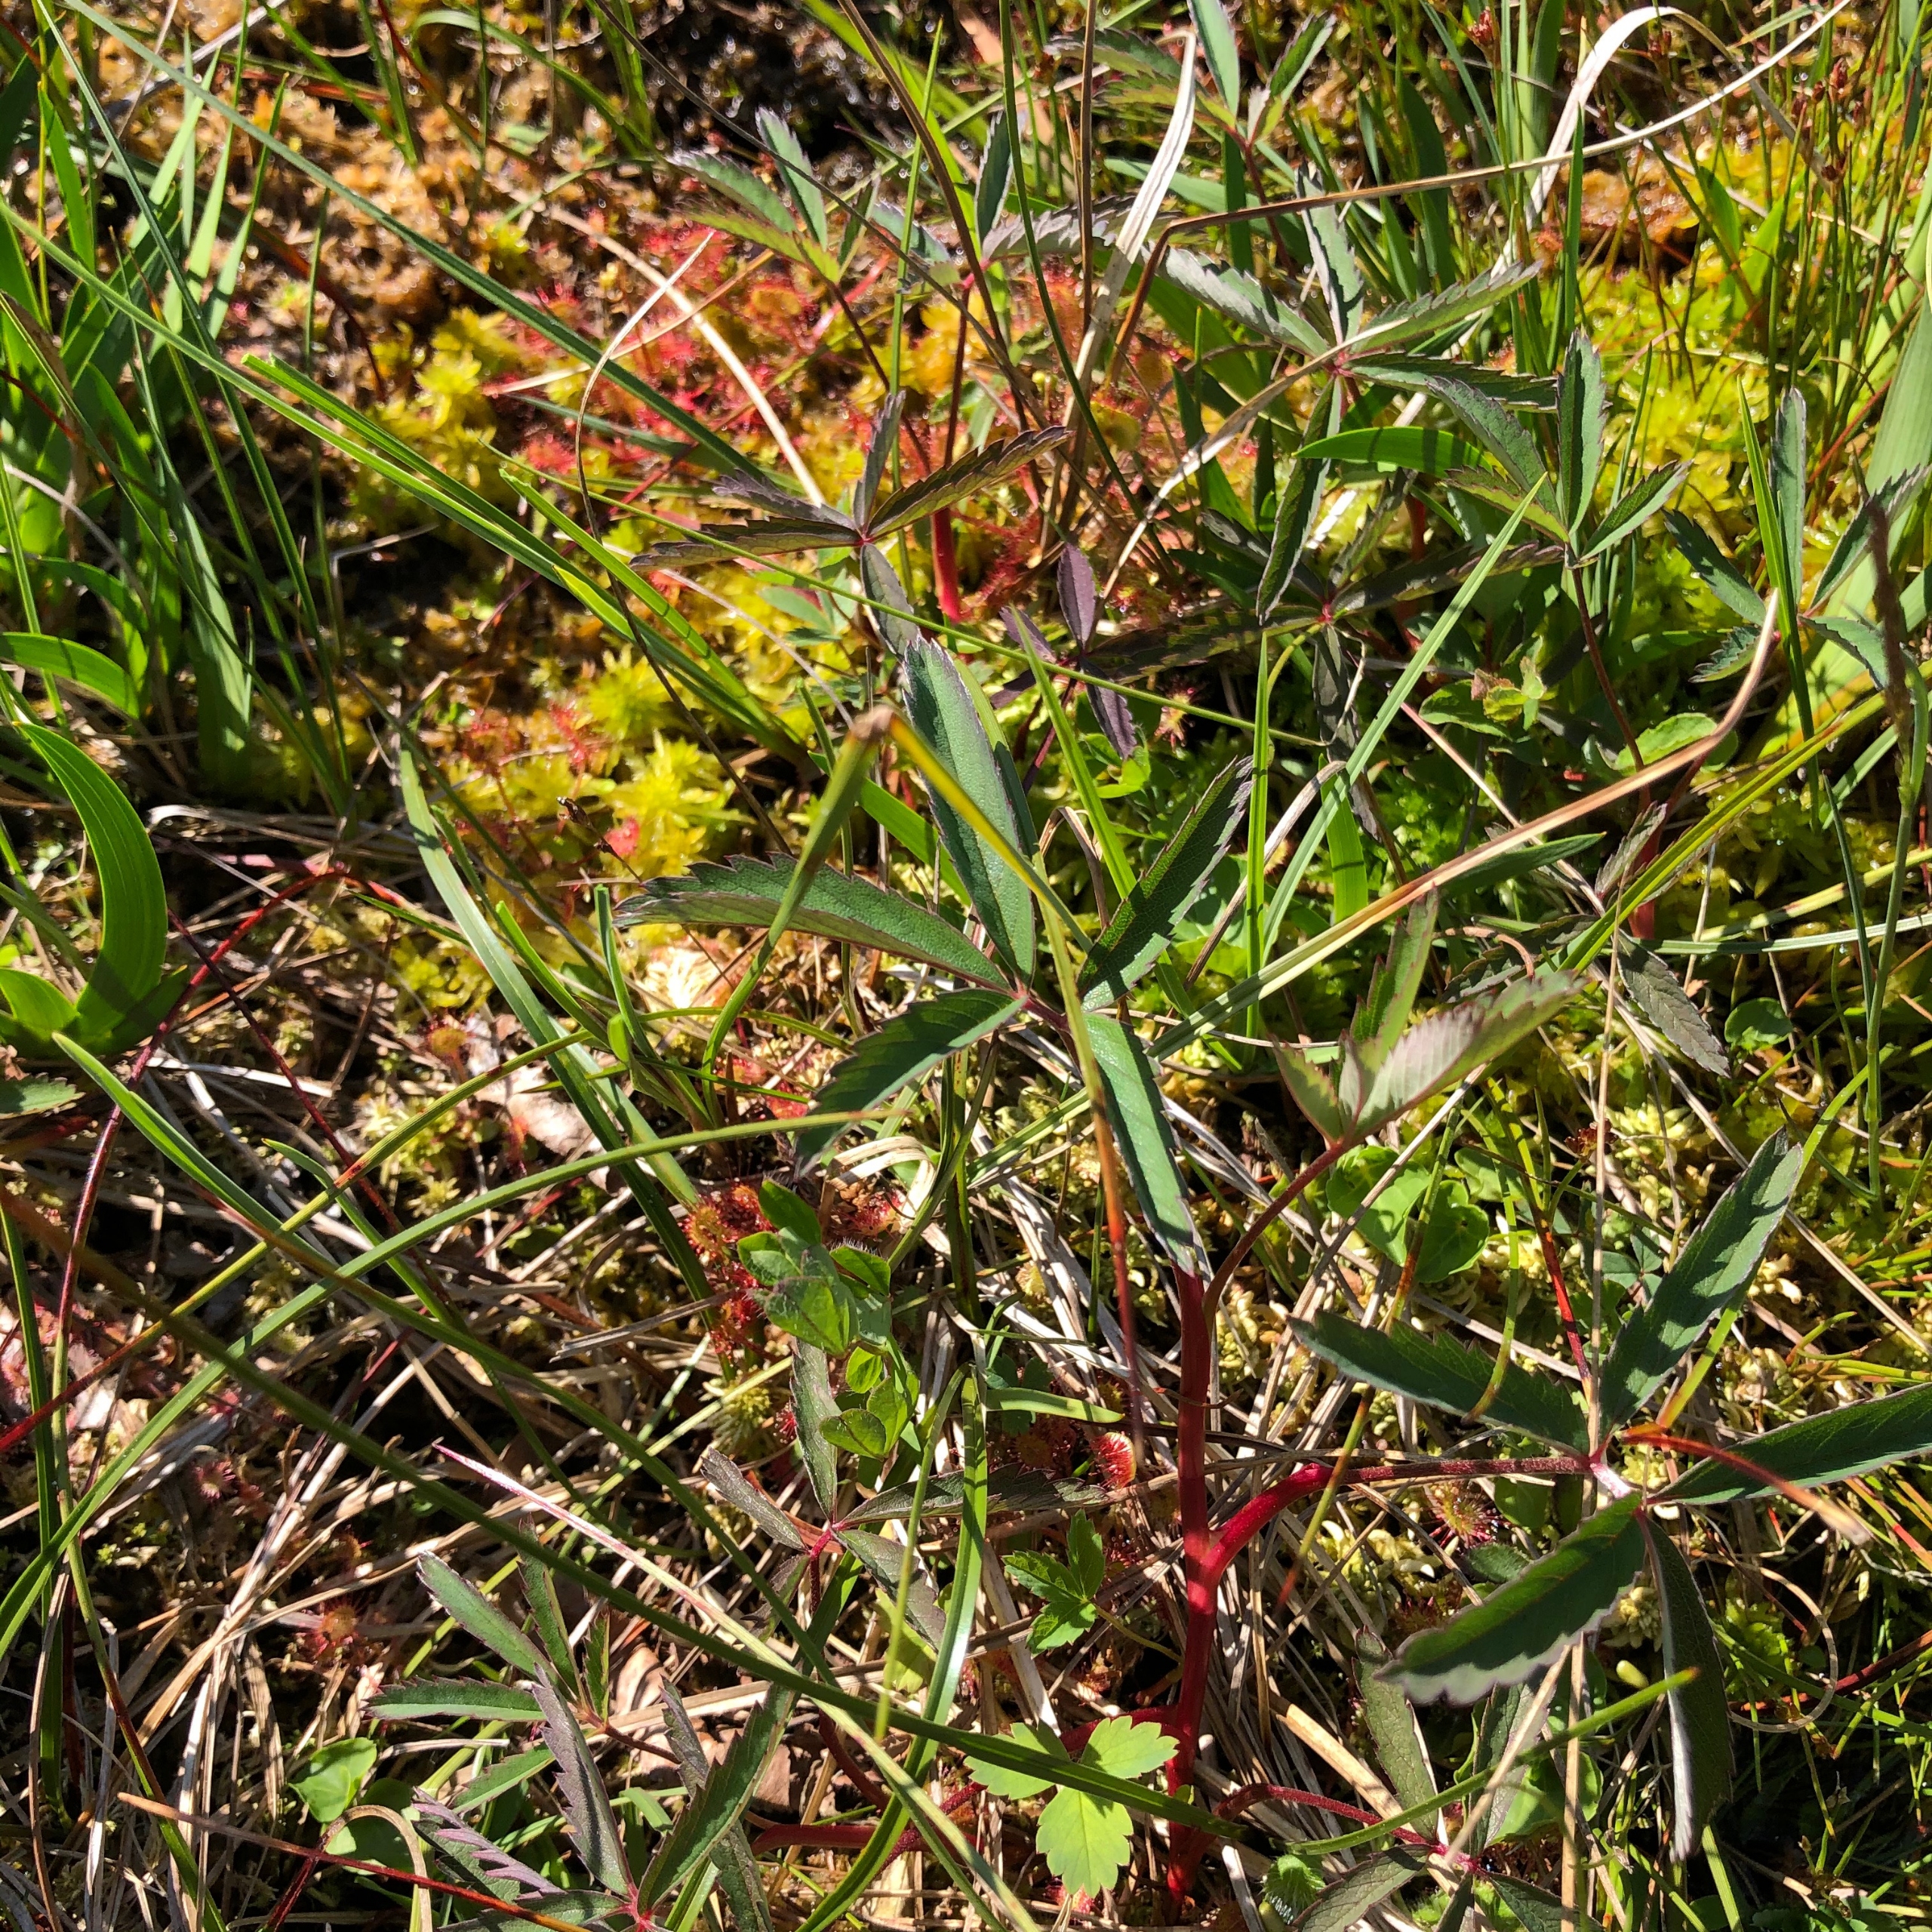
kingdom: Plantae
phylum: Tracheophyta
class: Magnoliopsida
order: Rosales
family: Rosaceae
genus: Comarum
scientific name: Comarum palustre
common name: Kragefod
